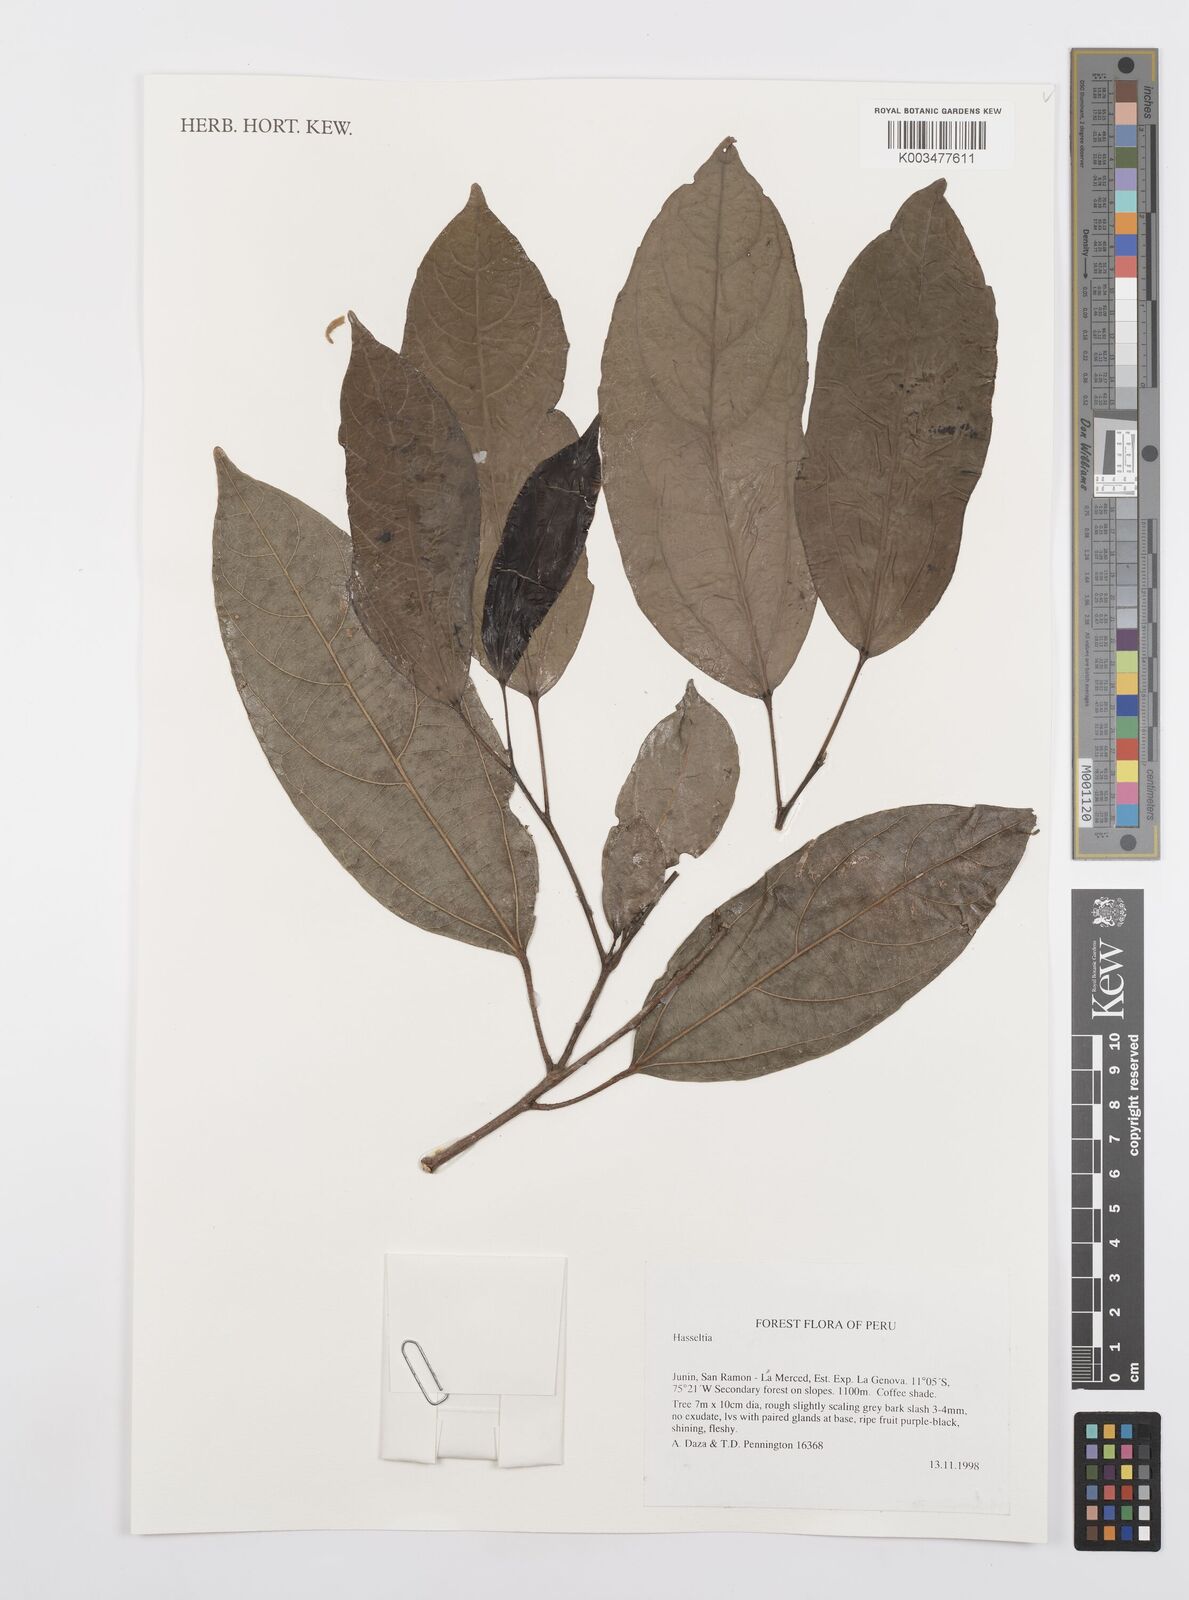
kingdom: Plantae
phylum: Tracheophyta
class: Magnoliopsida
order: Malpighiales
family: Salicaceae
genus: Hasseltia
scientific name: Hasseltia
